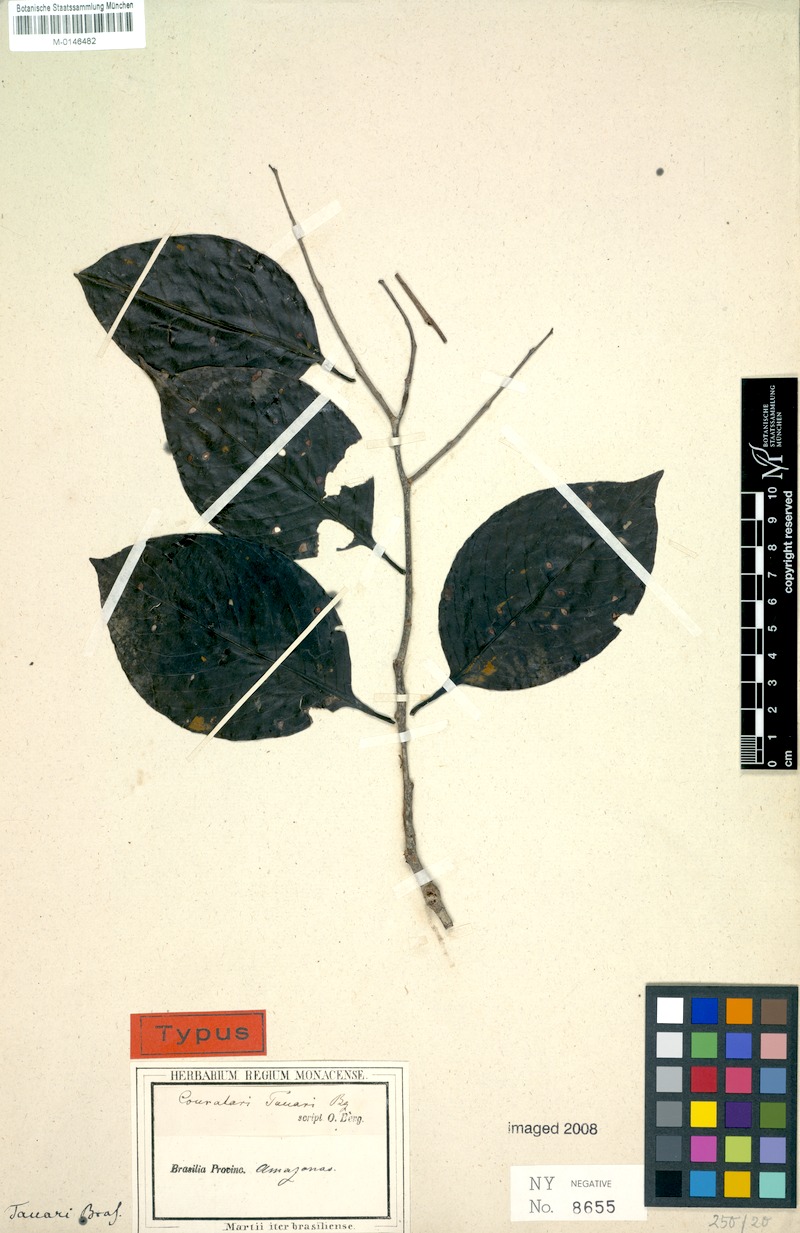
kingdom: Plantae
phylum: Tracheophyta
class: Magnoliopsida
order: Ericales
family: Lecythidaceae
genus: Couratari
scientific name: Couratari tauari
